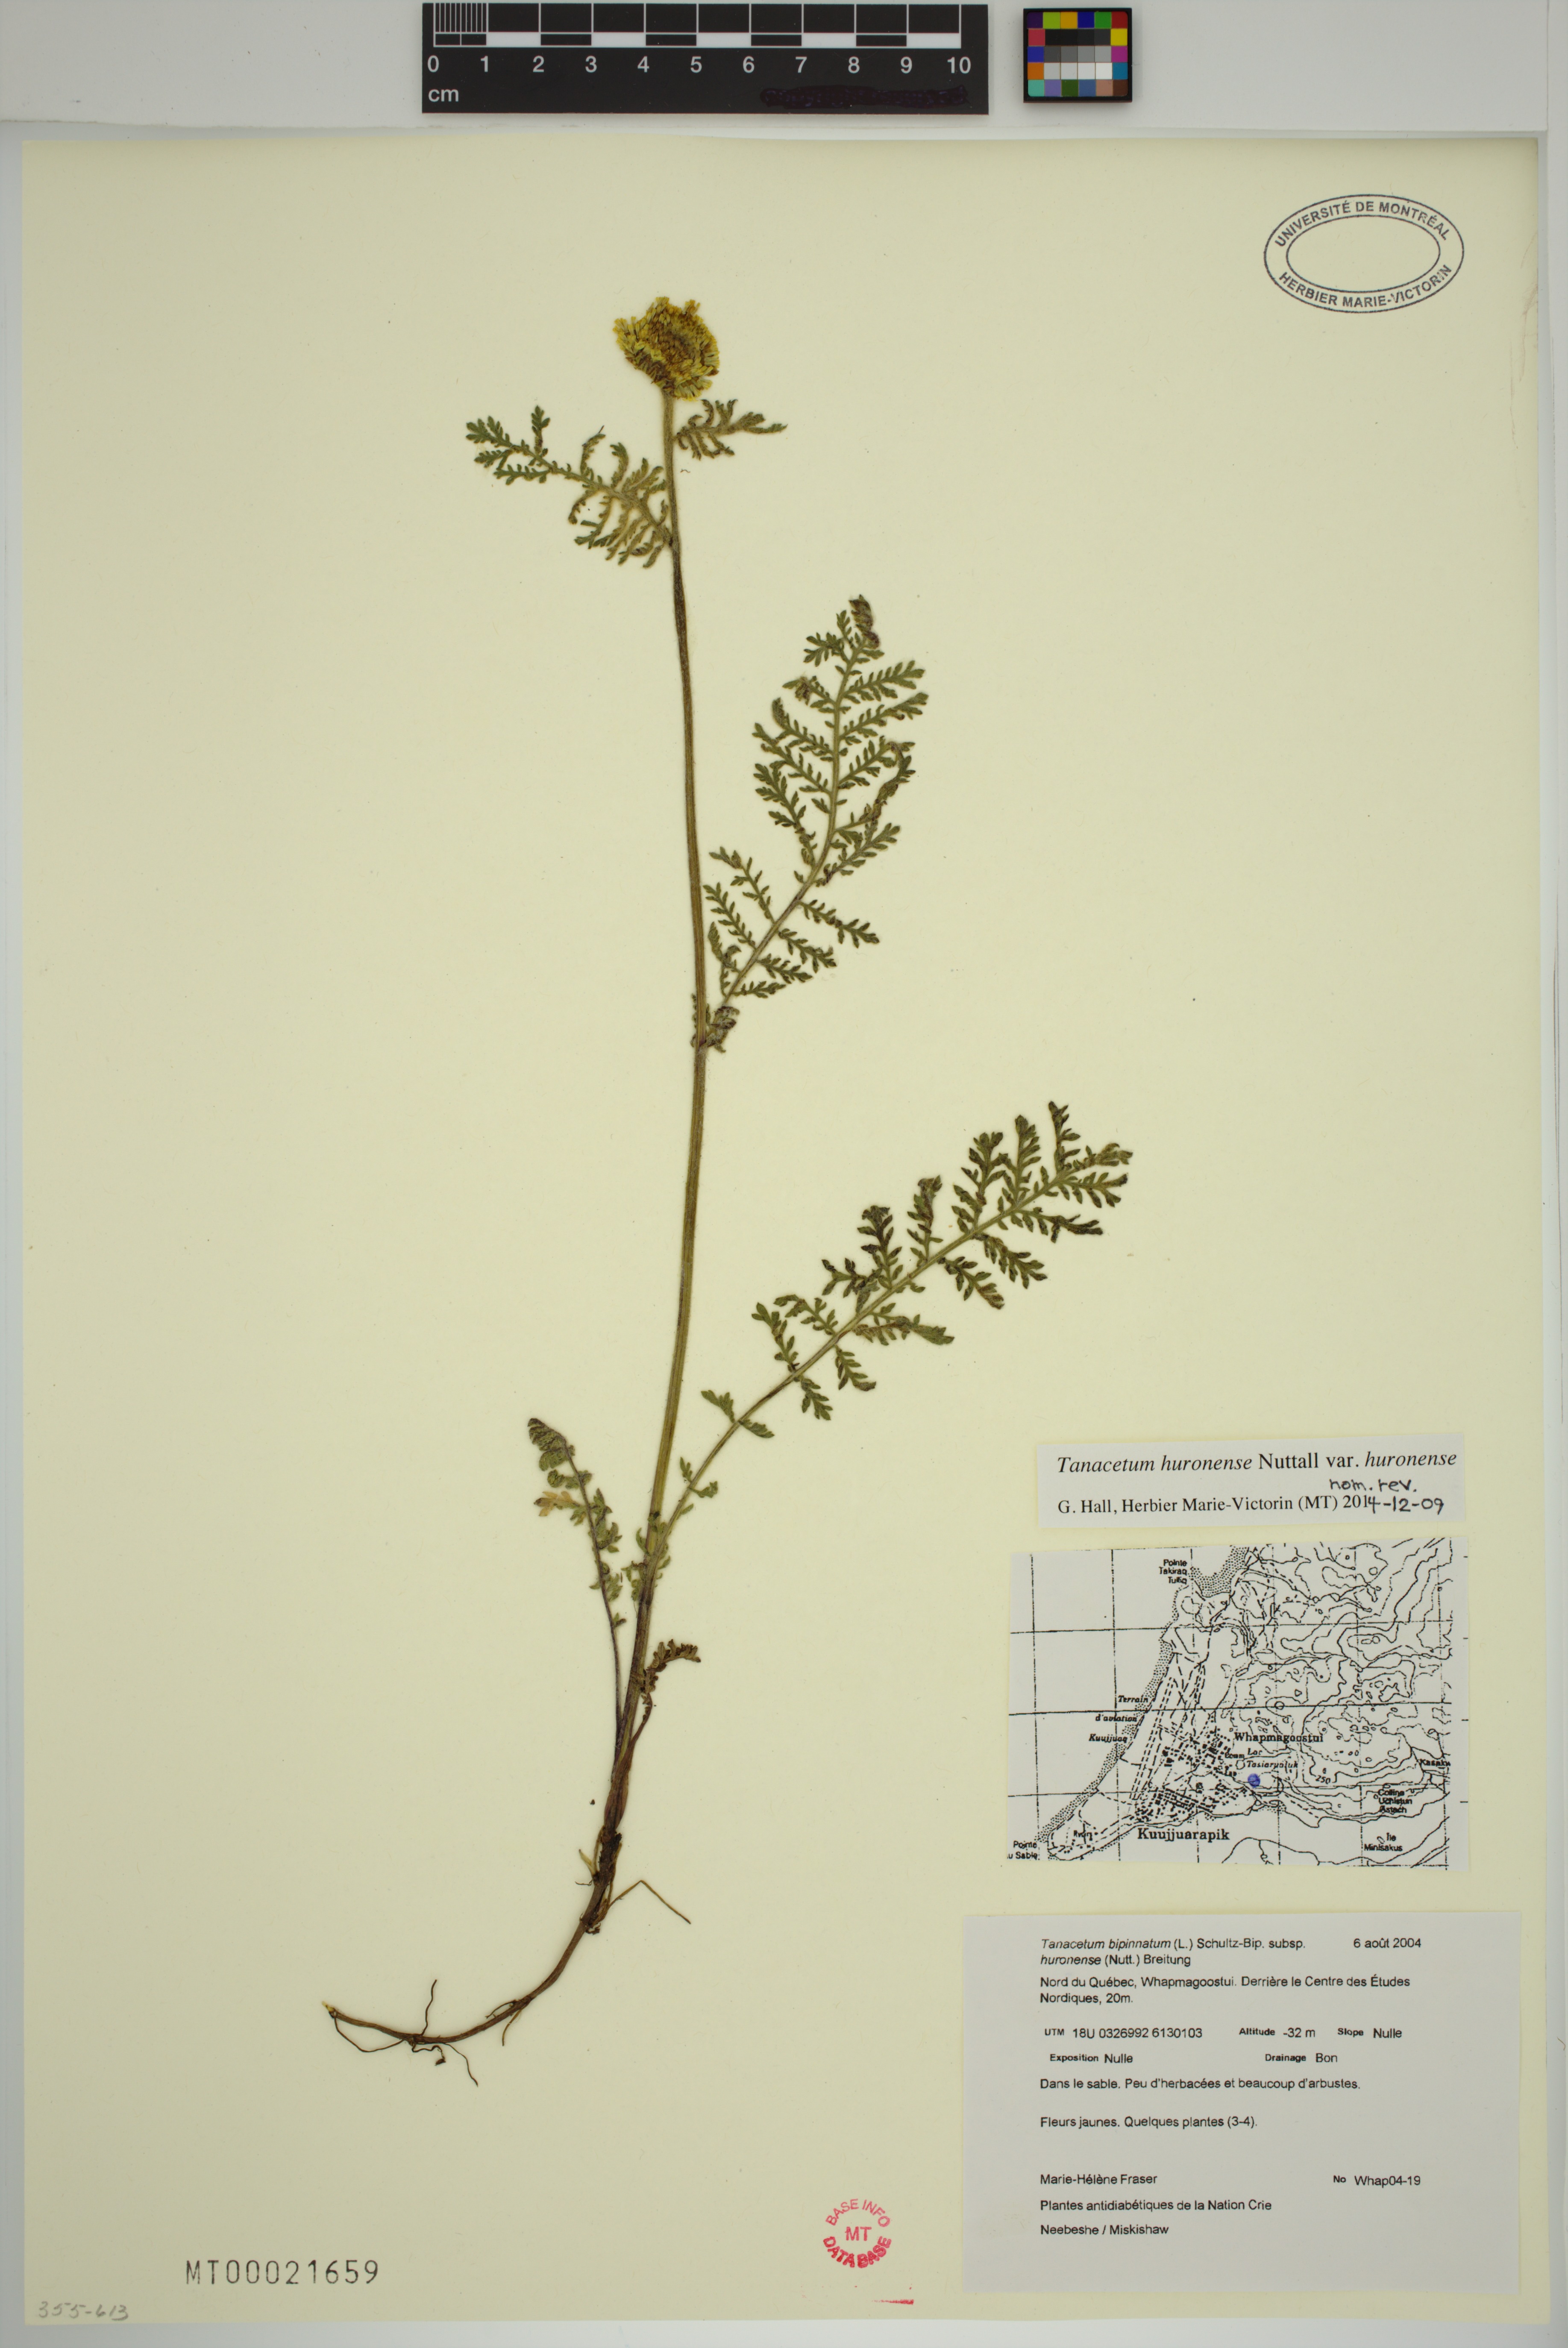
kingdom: Plantae
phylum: Tracheophyta
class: Magnoliopsida
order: Asterales
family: Asteraceae
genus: Tanacetum
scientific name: Tanacetum bipinnatum
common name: Dwarf tansy
